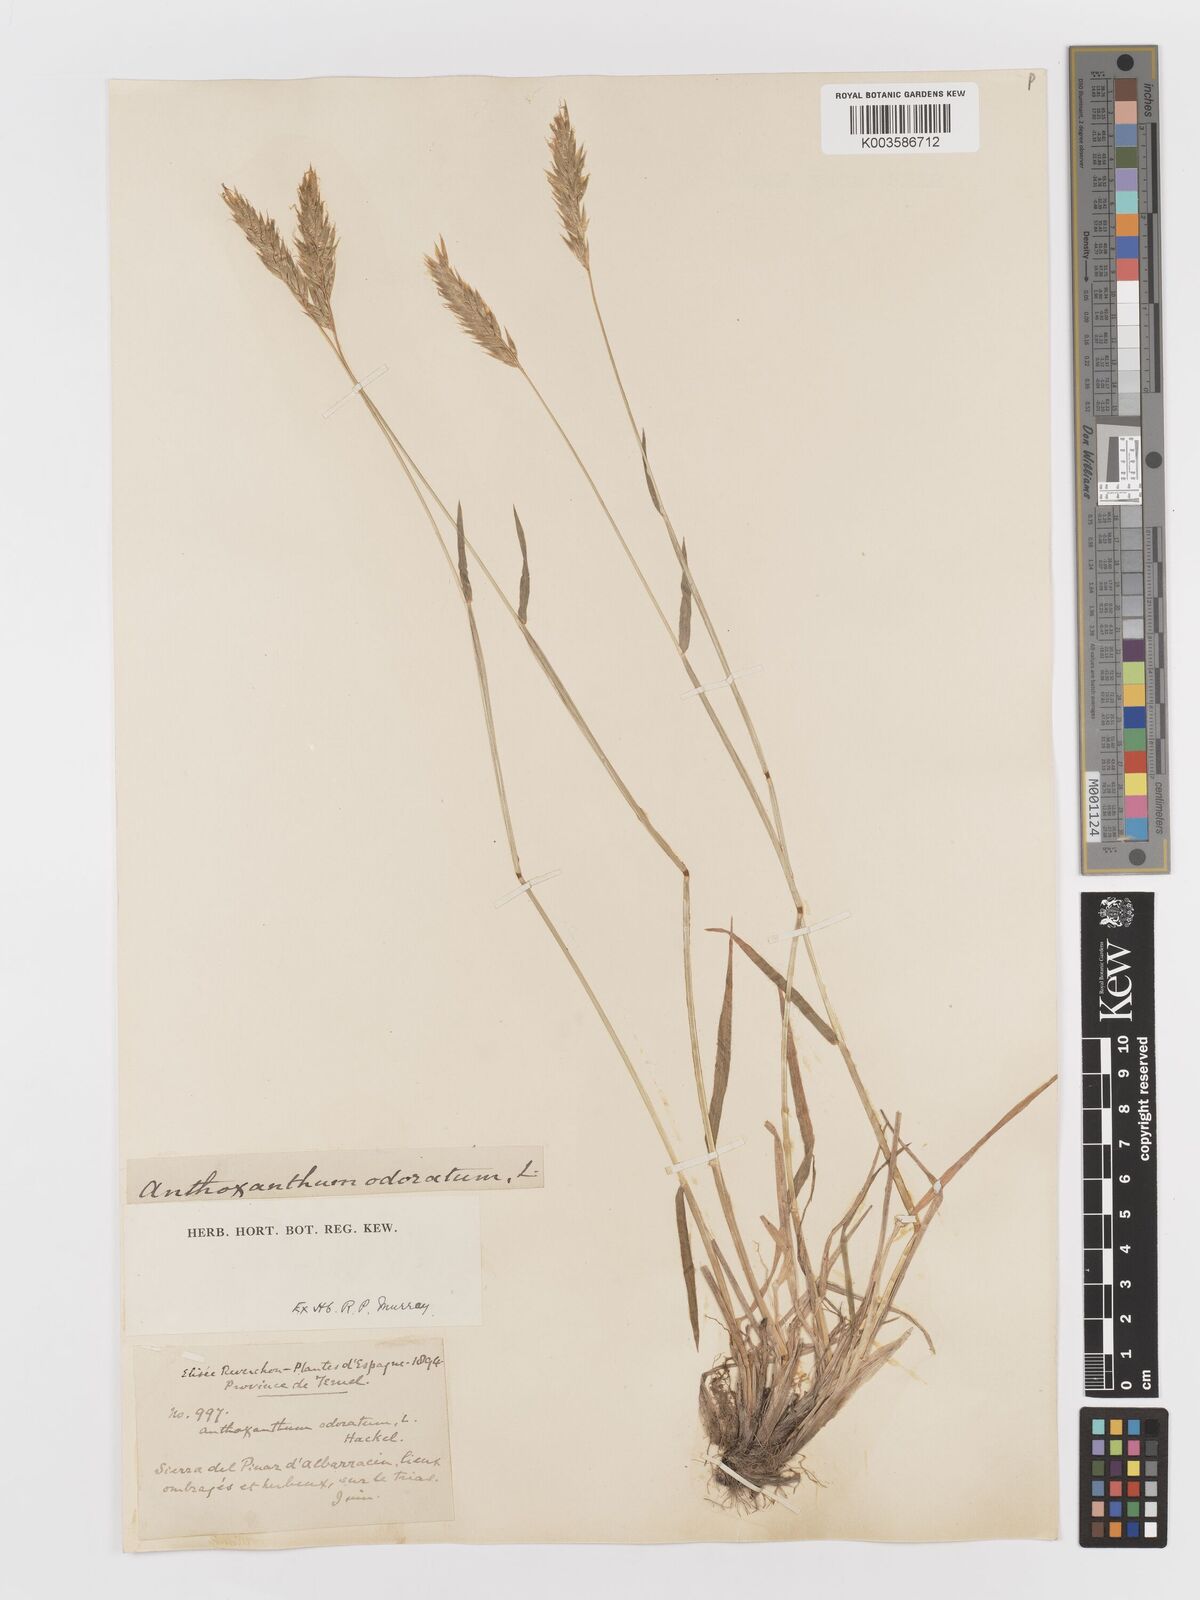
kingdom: Plantae
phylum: Tracheophyta
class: Liliopsida
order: Poales
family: Poaceae
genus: Anthoxanthum
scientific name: Anthoxanthum odoratum
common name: Sweet vernalgrass
